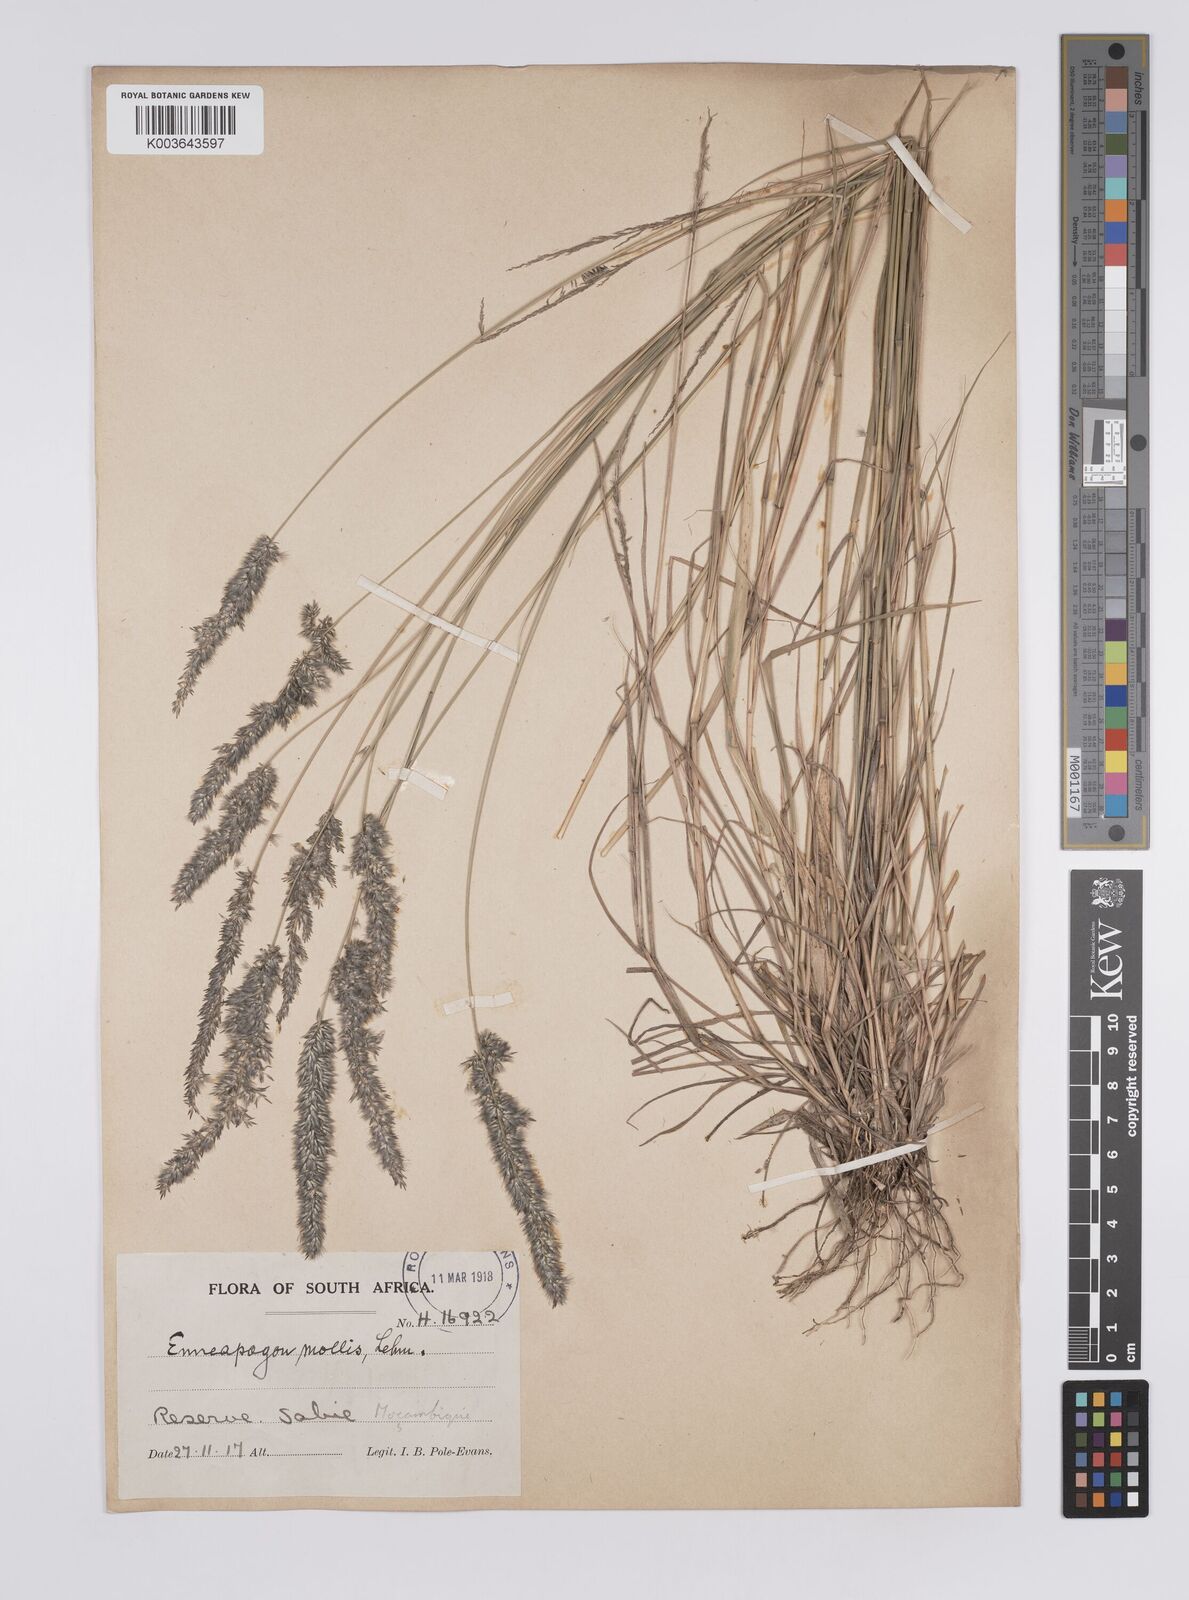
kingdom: Plantae
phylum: Tracheophyta
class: Liliopsida
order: Poales
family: Poaceae
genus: Enneapogon
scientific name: Enneapogon cenchroides
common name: Soft feather pappusgrass
